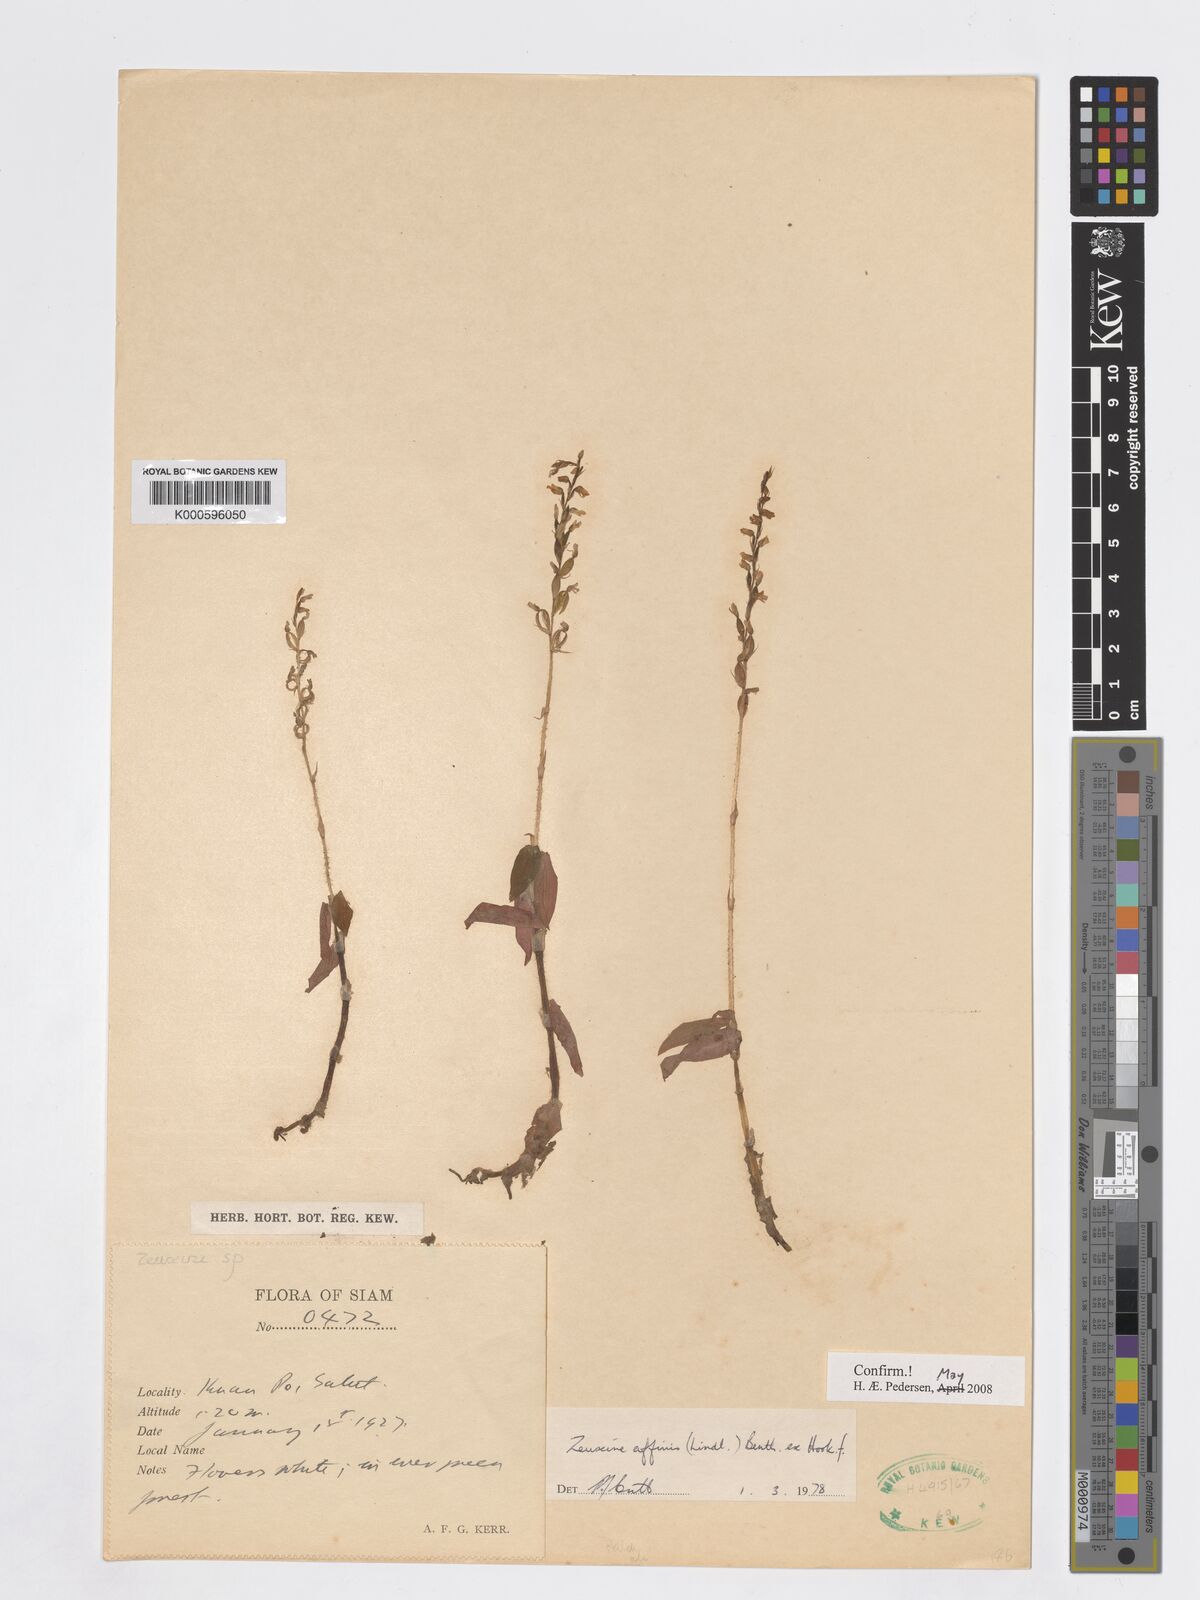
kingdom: Plantae
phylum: Tracheophyta
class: Liliopsida
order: Asparagales
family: Orchidaceae
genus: Zeuxine
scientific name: Zeuxine affinis
